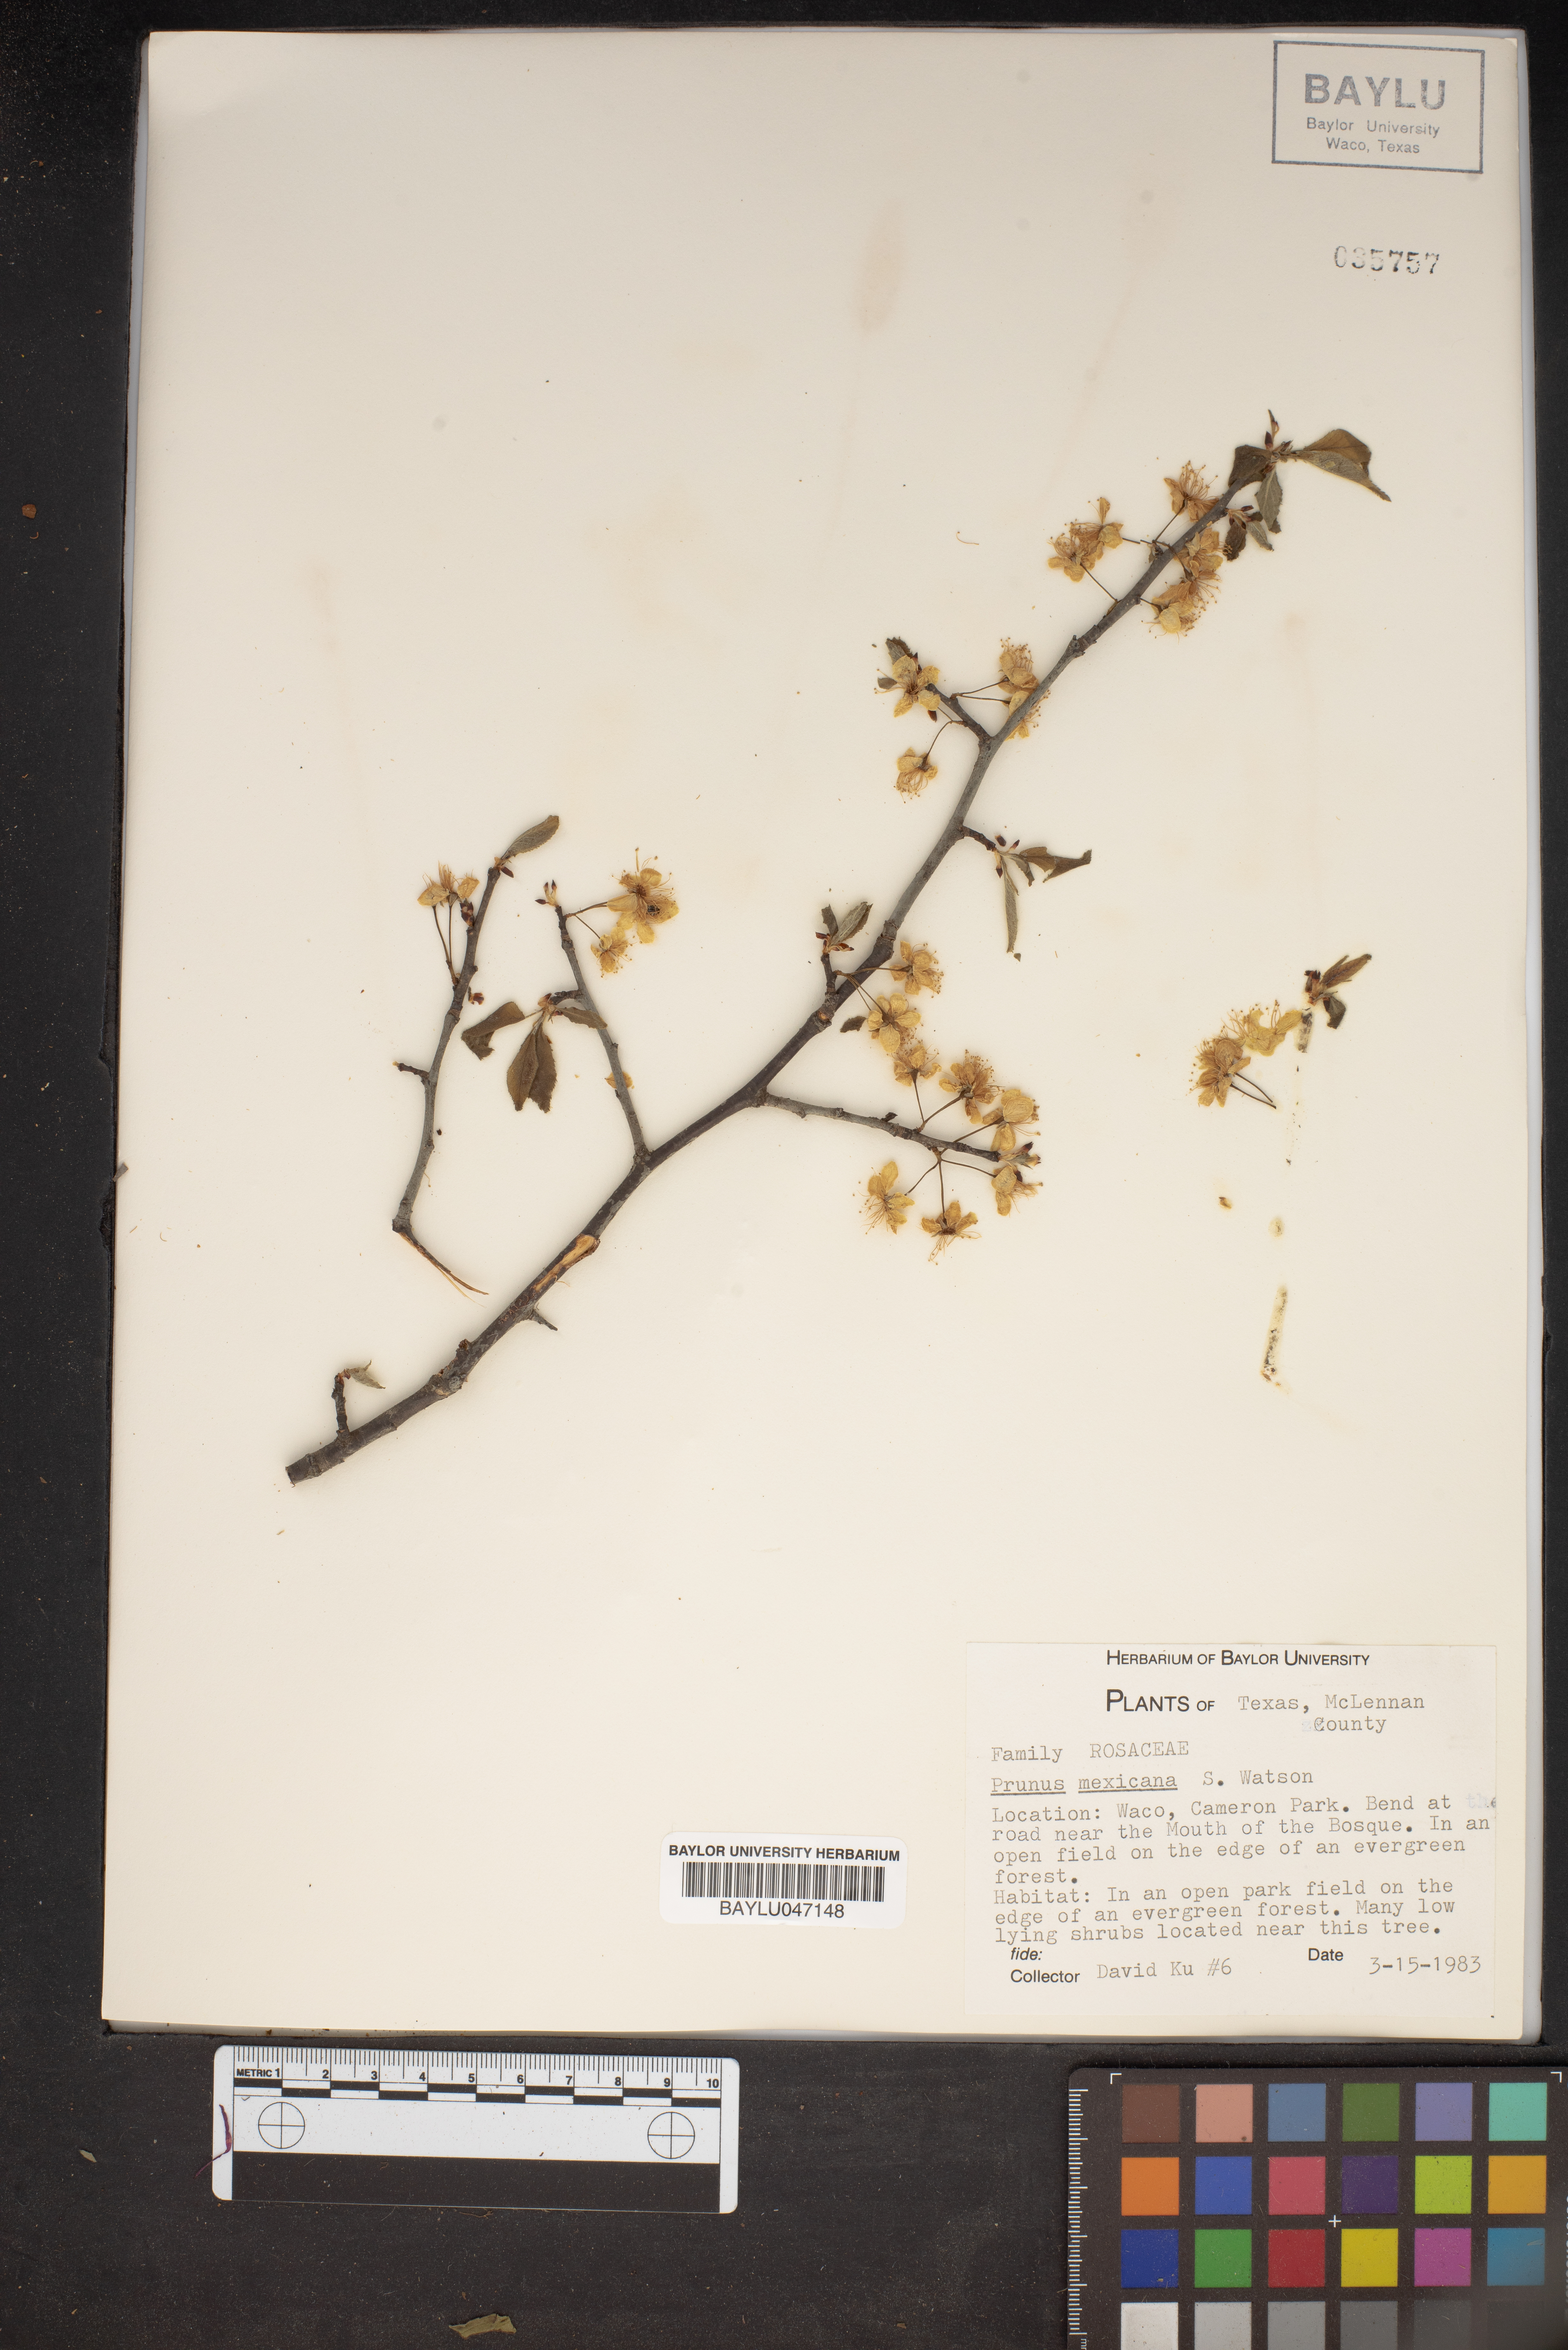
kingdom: Plantae
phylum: Tracheophyta
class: Magnoliopsida
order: Rosales
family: Rosaceae
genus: Prunus
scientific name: Prunus mexicana
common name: Mexican plum
